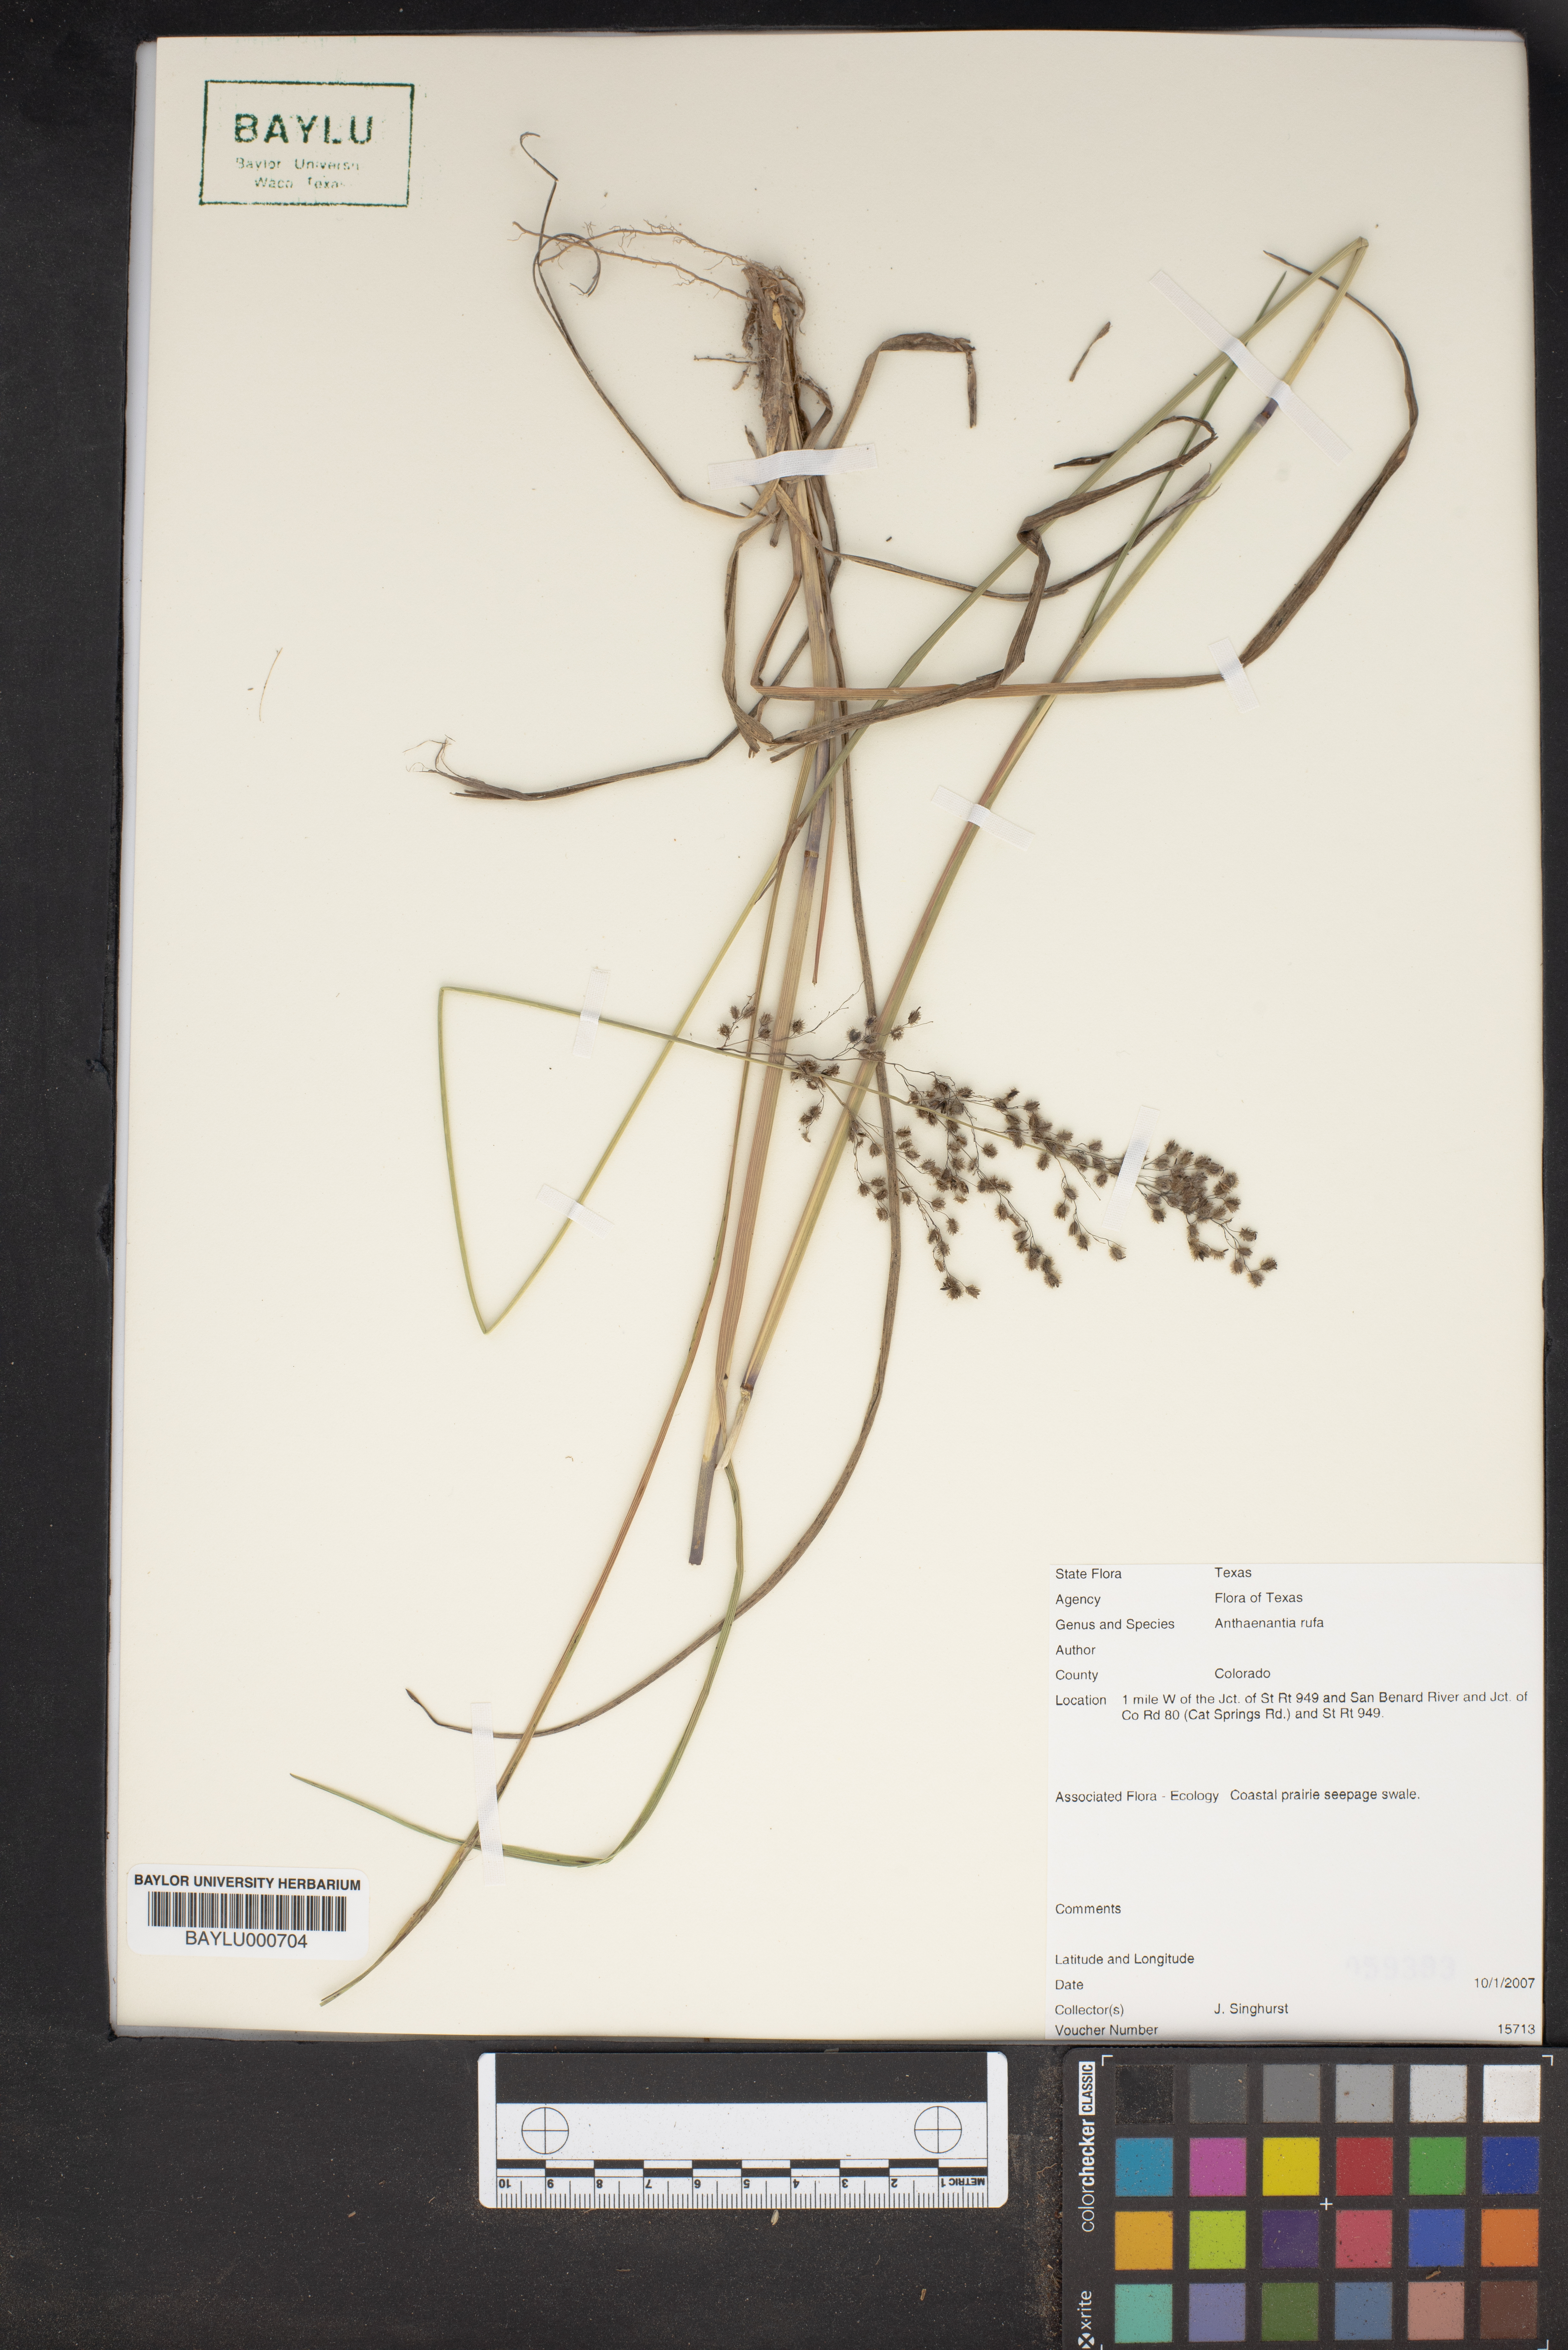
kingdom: Plantae
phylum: Tracheophyta
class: Liliopsida
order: Poales
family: Poaceae
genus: Anthenantia
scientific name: Anthenantia rufa
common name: Purple silkyscale
